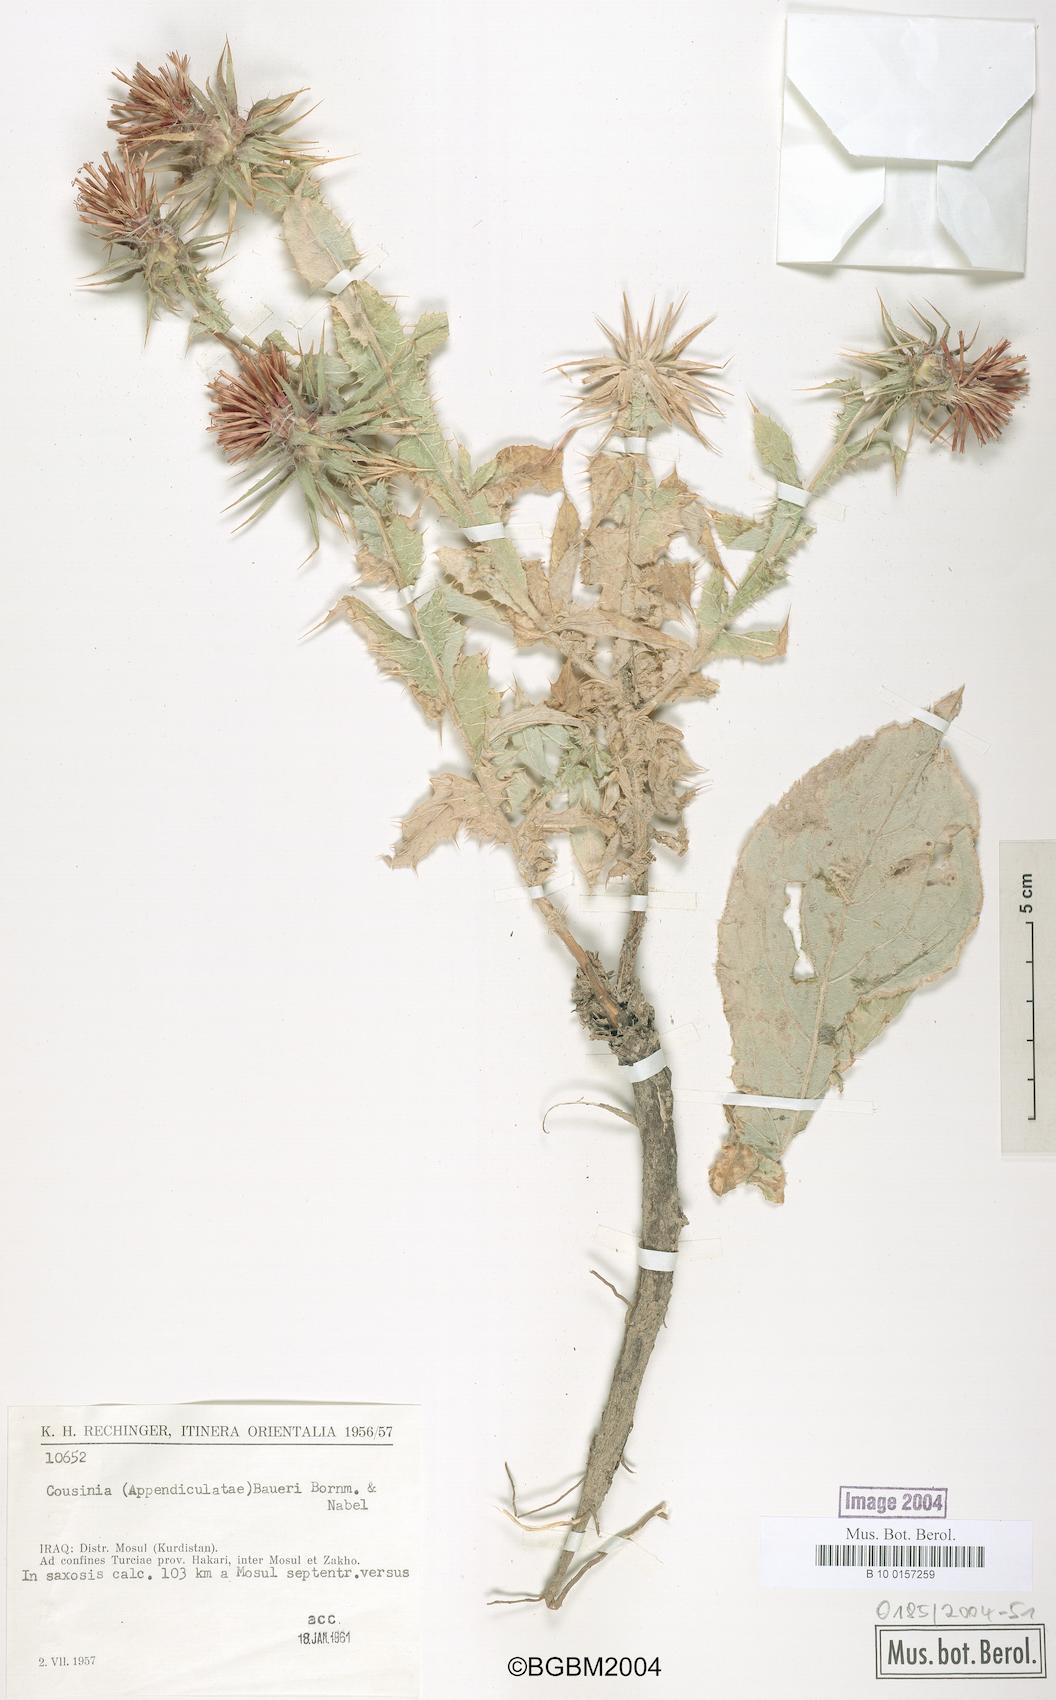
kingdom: Plantae
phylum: Tracheophyta
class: Magnoliopsida
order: Asterales
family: Asteraceae
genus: Cousinia
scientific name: Cousinia odontolepis
